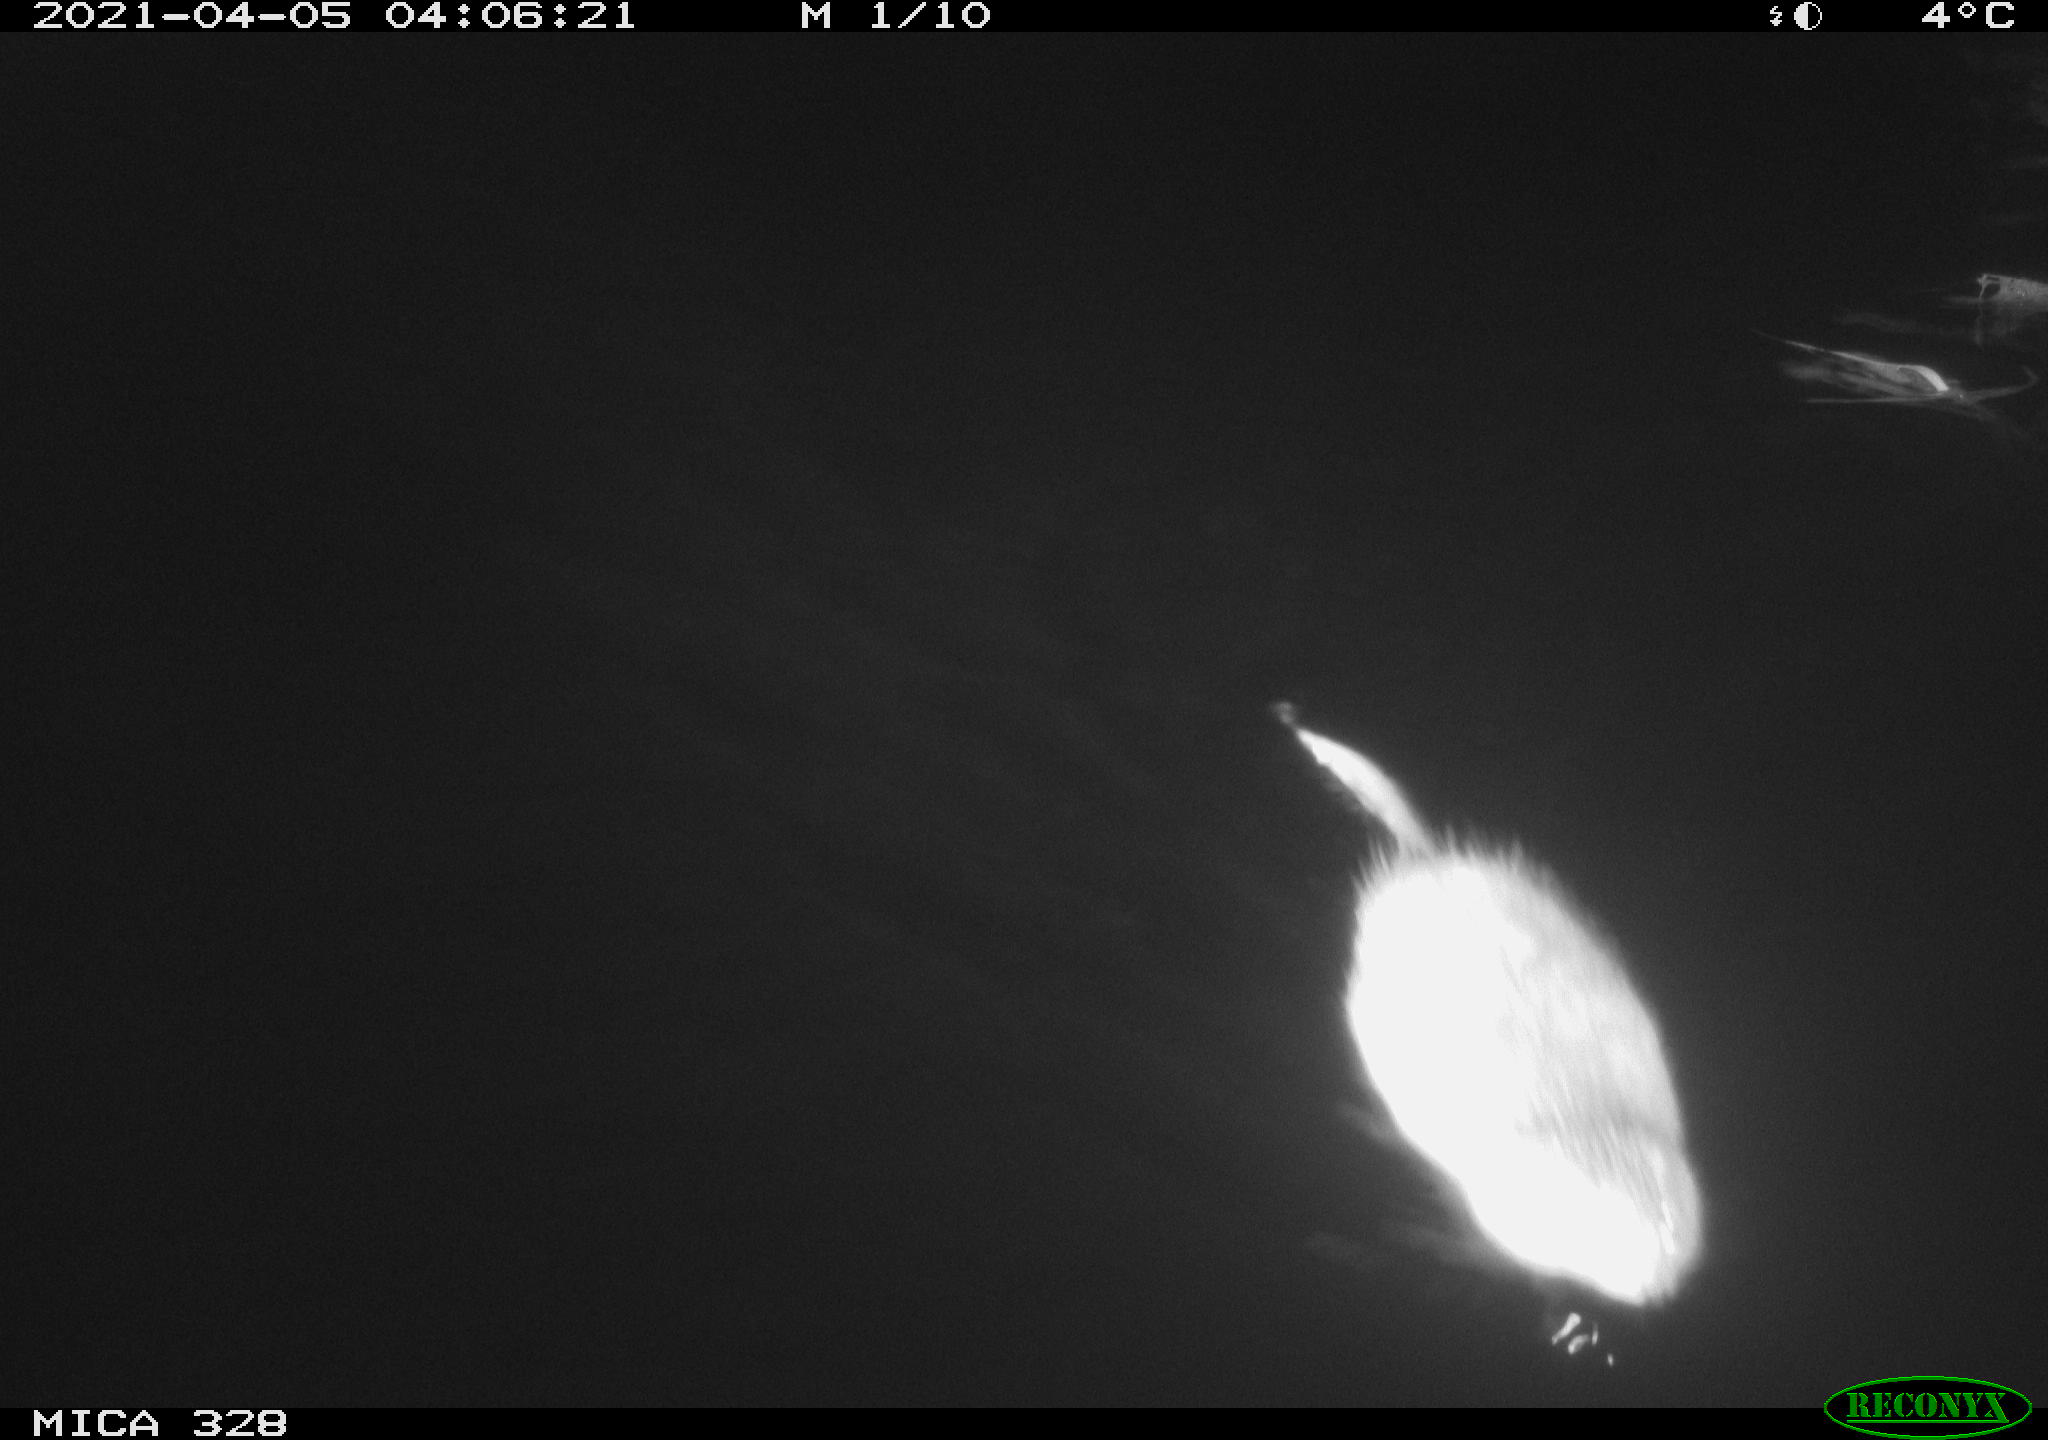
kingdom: Animalia
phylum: Chordata
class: Mammalia
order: Rodentia
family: Cricetidae
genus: Ondatra
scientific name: Ondatra zibethicus
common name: Muskrat
